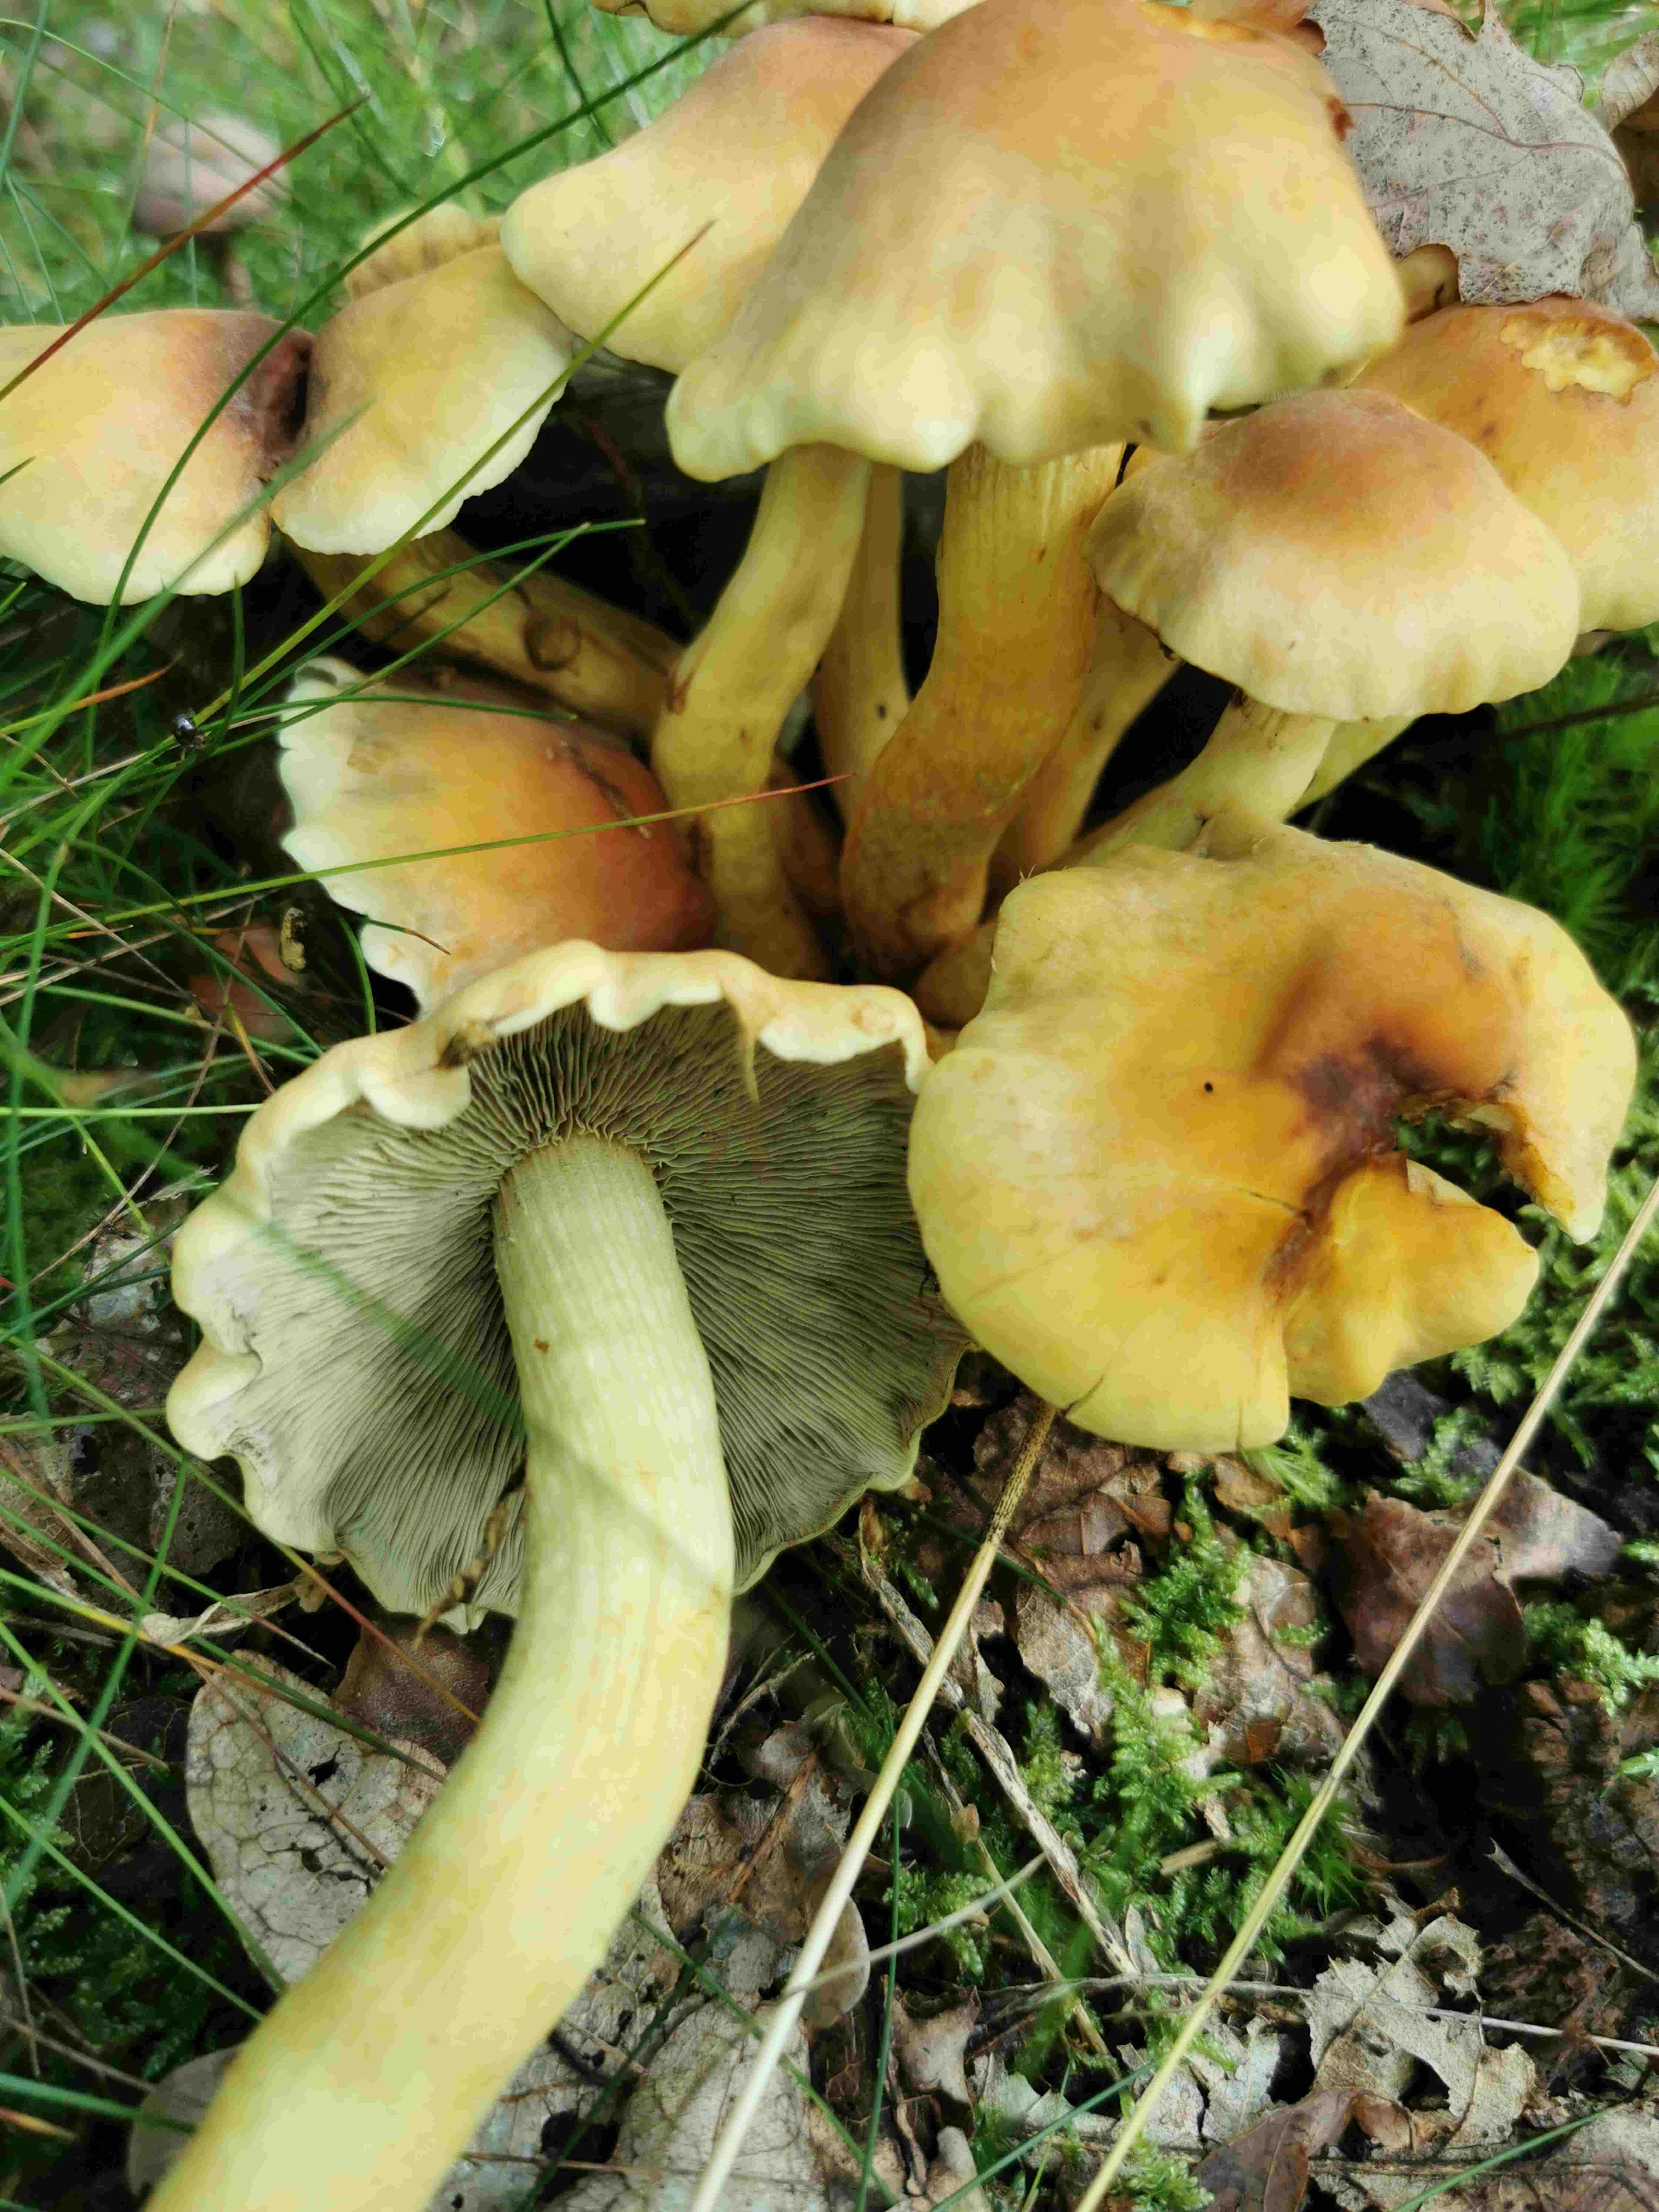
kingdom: Fungi
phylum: Basidiomycota
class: Agaricomycetes
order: Agaricales
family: Strophariaceae
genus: Hypholoma
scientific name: Hypholoma fasciculare
